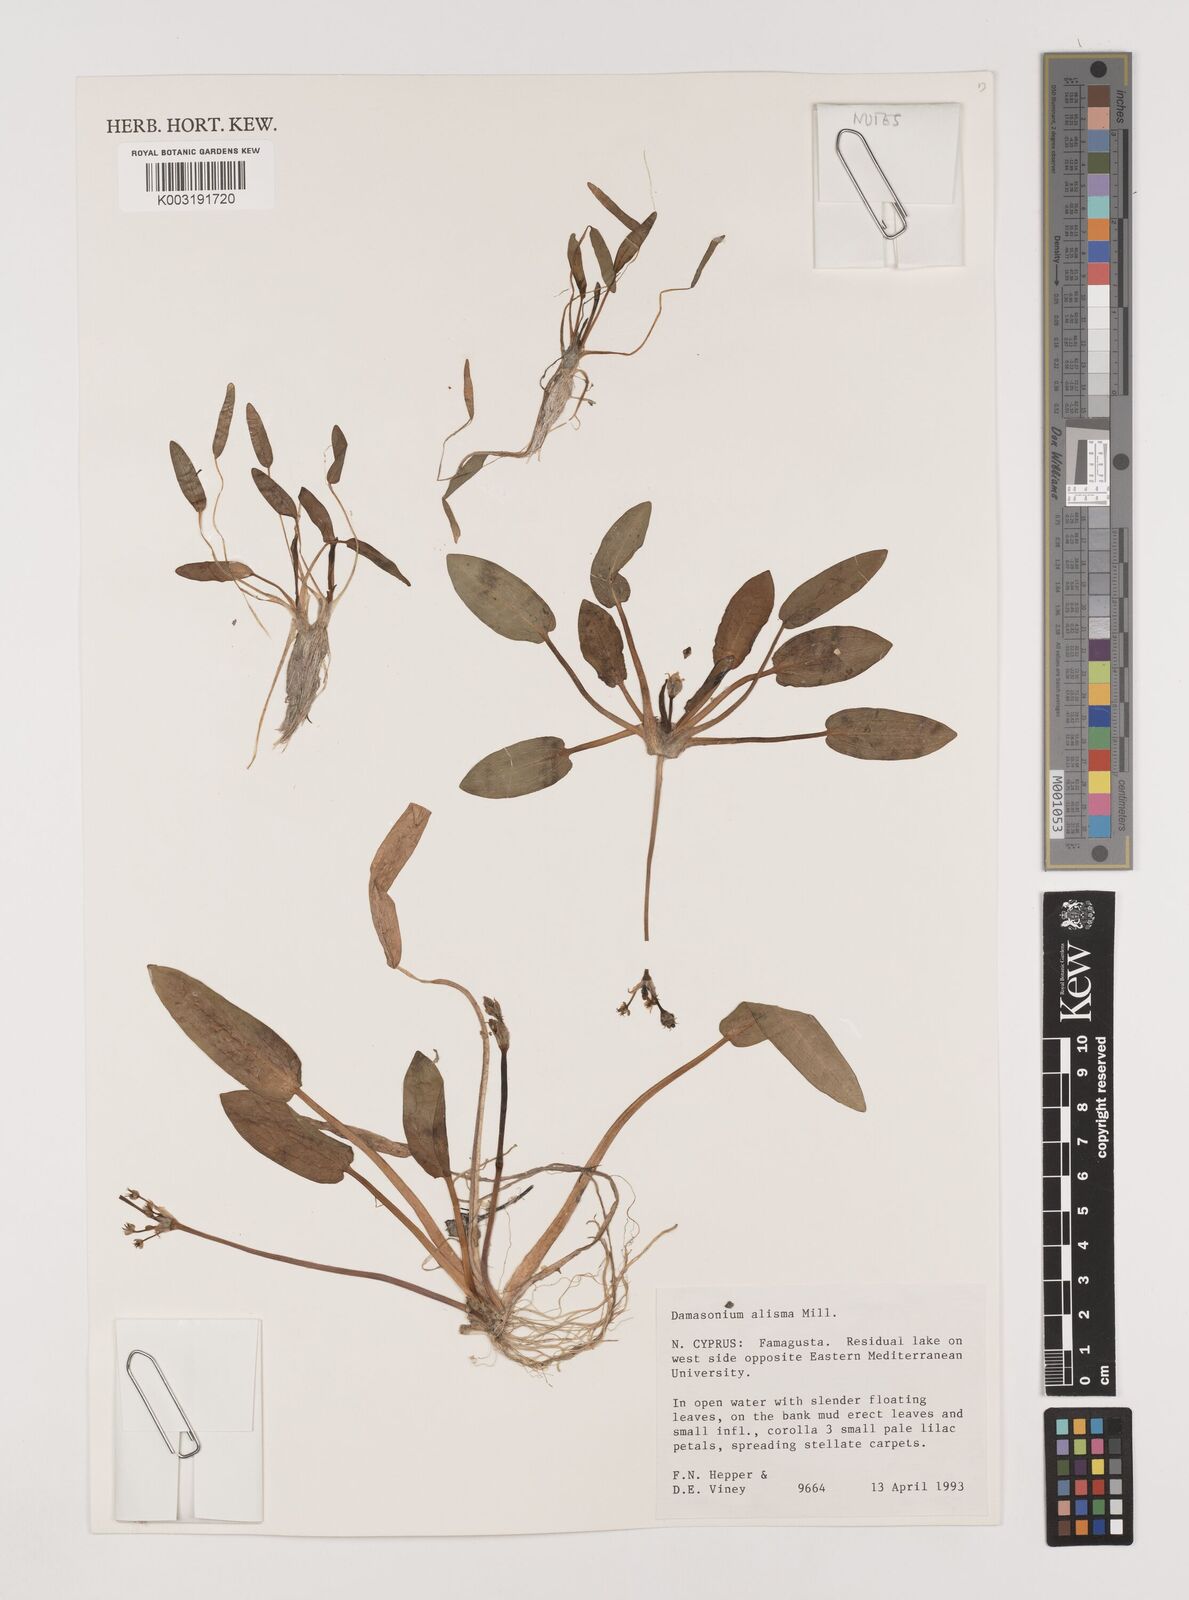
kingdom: Plantae
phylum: Tracheophyta
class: Liliopsida
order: Alismatales
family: Alismataceae
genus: Damasonium
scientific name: Damasonium alisma
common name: Starfruit
